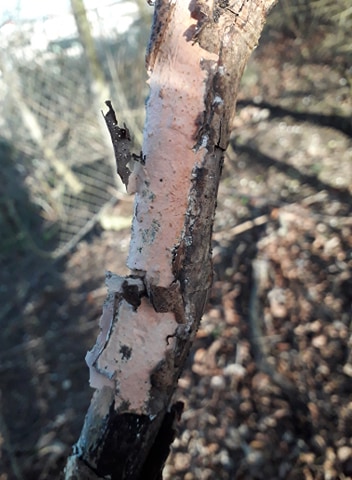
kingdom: Fungi
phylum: Basidiomycota
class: Agaricomycetes
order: Russulales
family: Peniophoraceae
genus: Peniophora
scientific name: Peniophora incarnata
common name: laksefarvet voksskind
